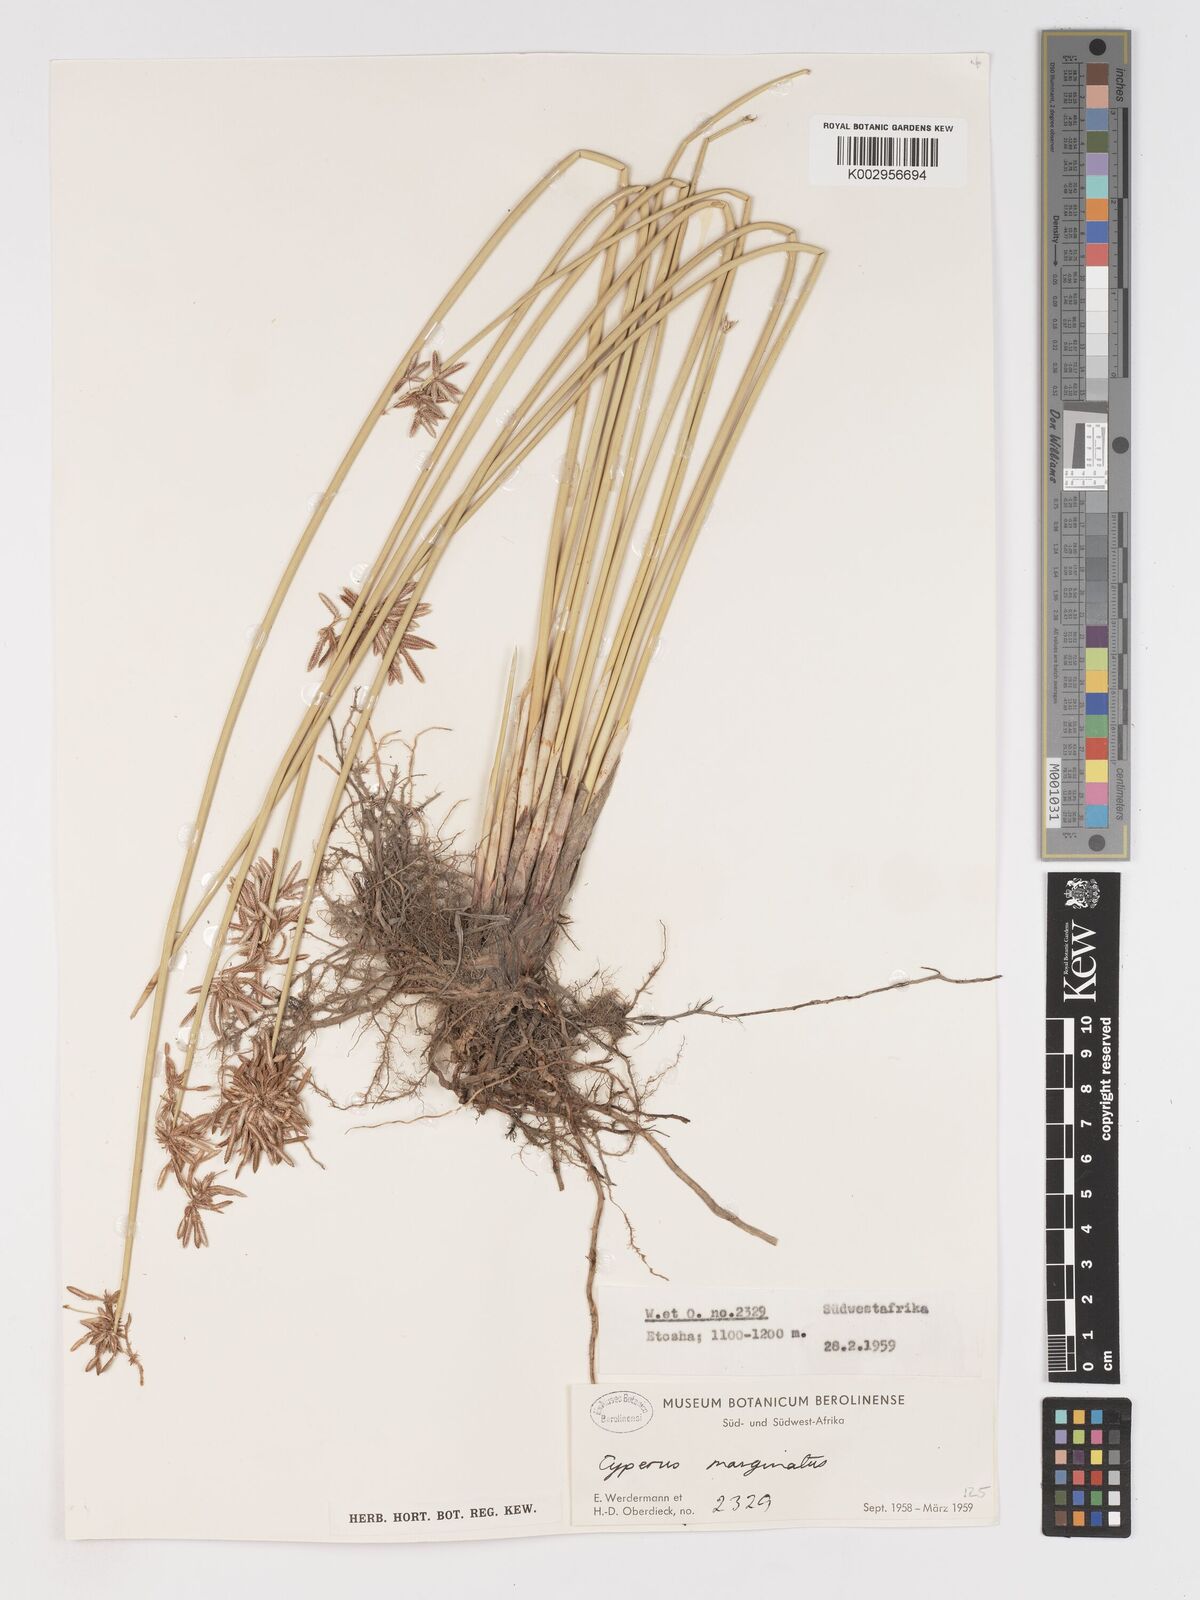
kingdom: Plantae
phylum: Tracheophyta
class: Liliopsida
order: Poales
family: Cyperaceae
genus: Cyperus
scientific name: Cyperus marginatus
